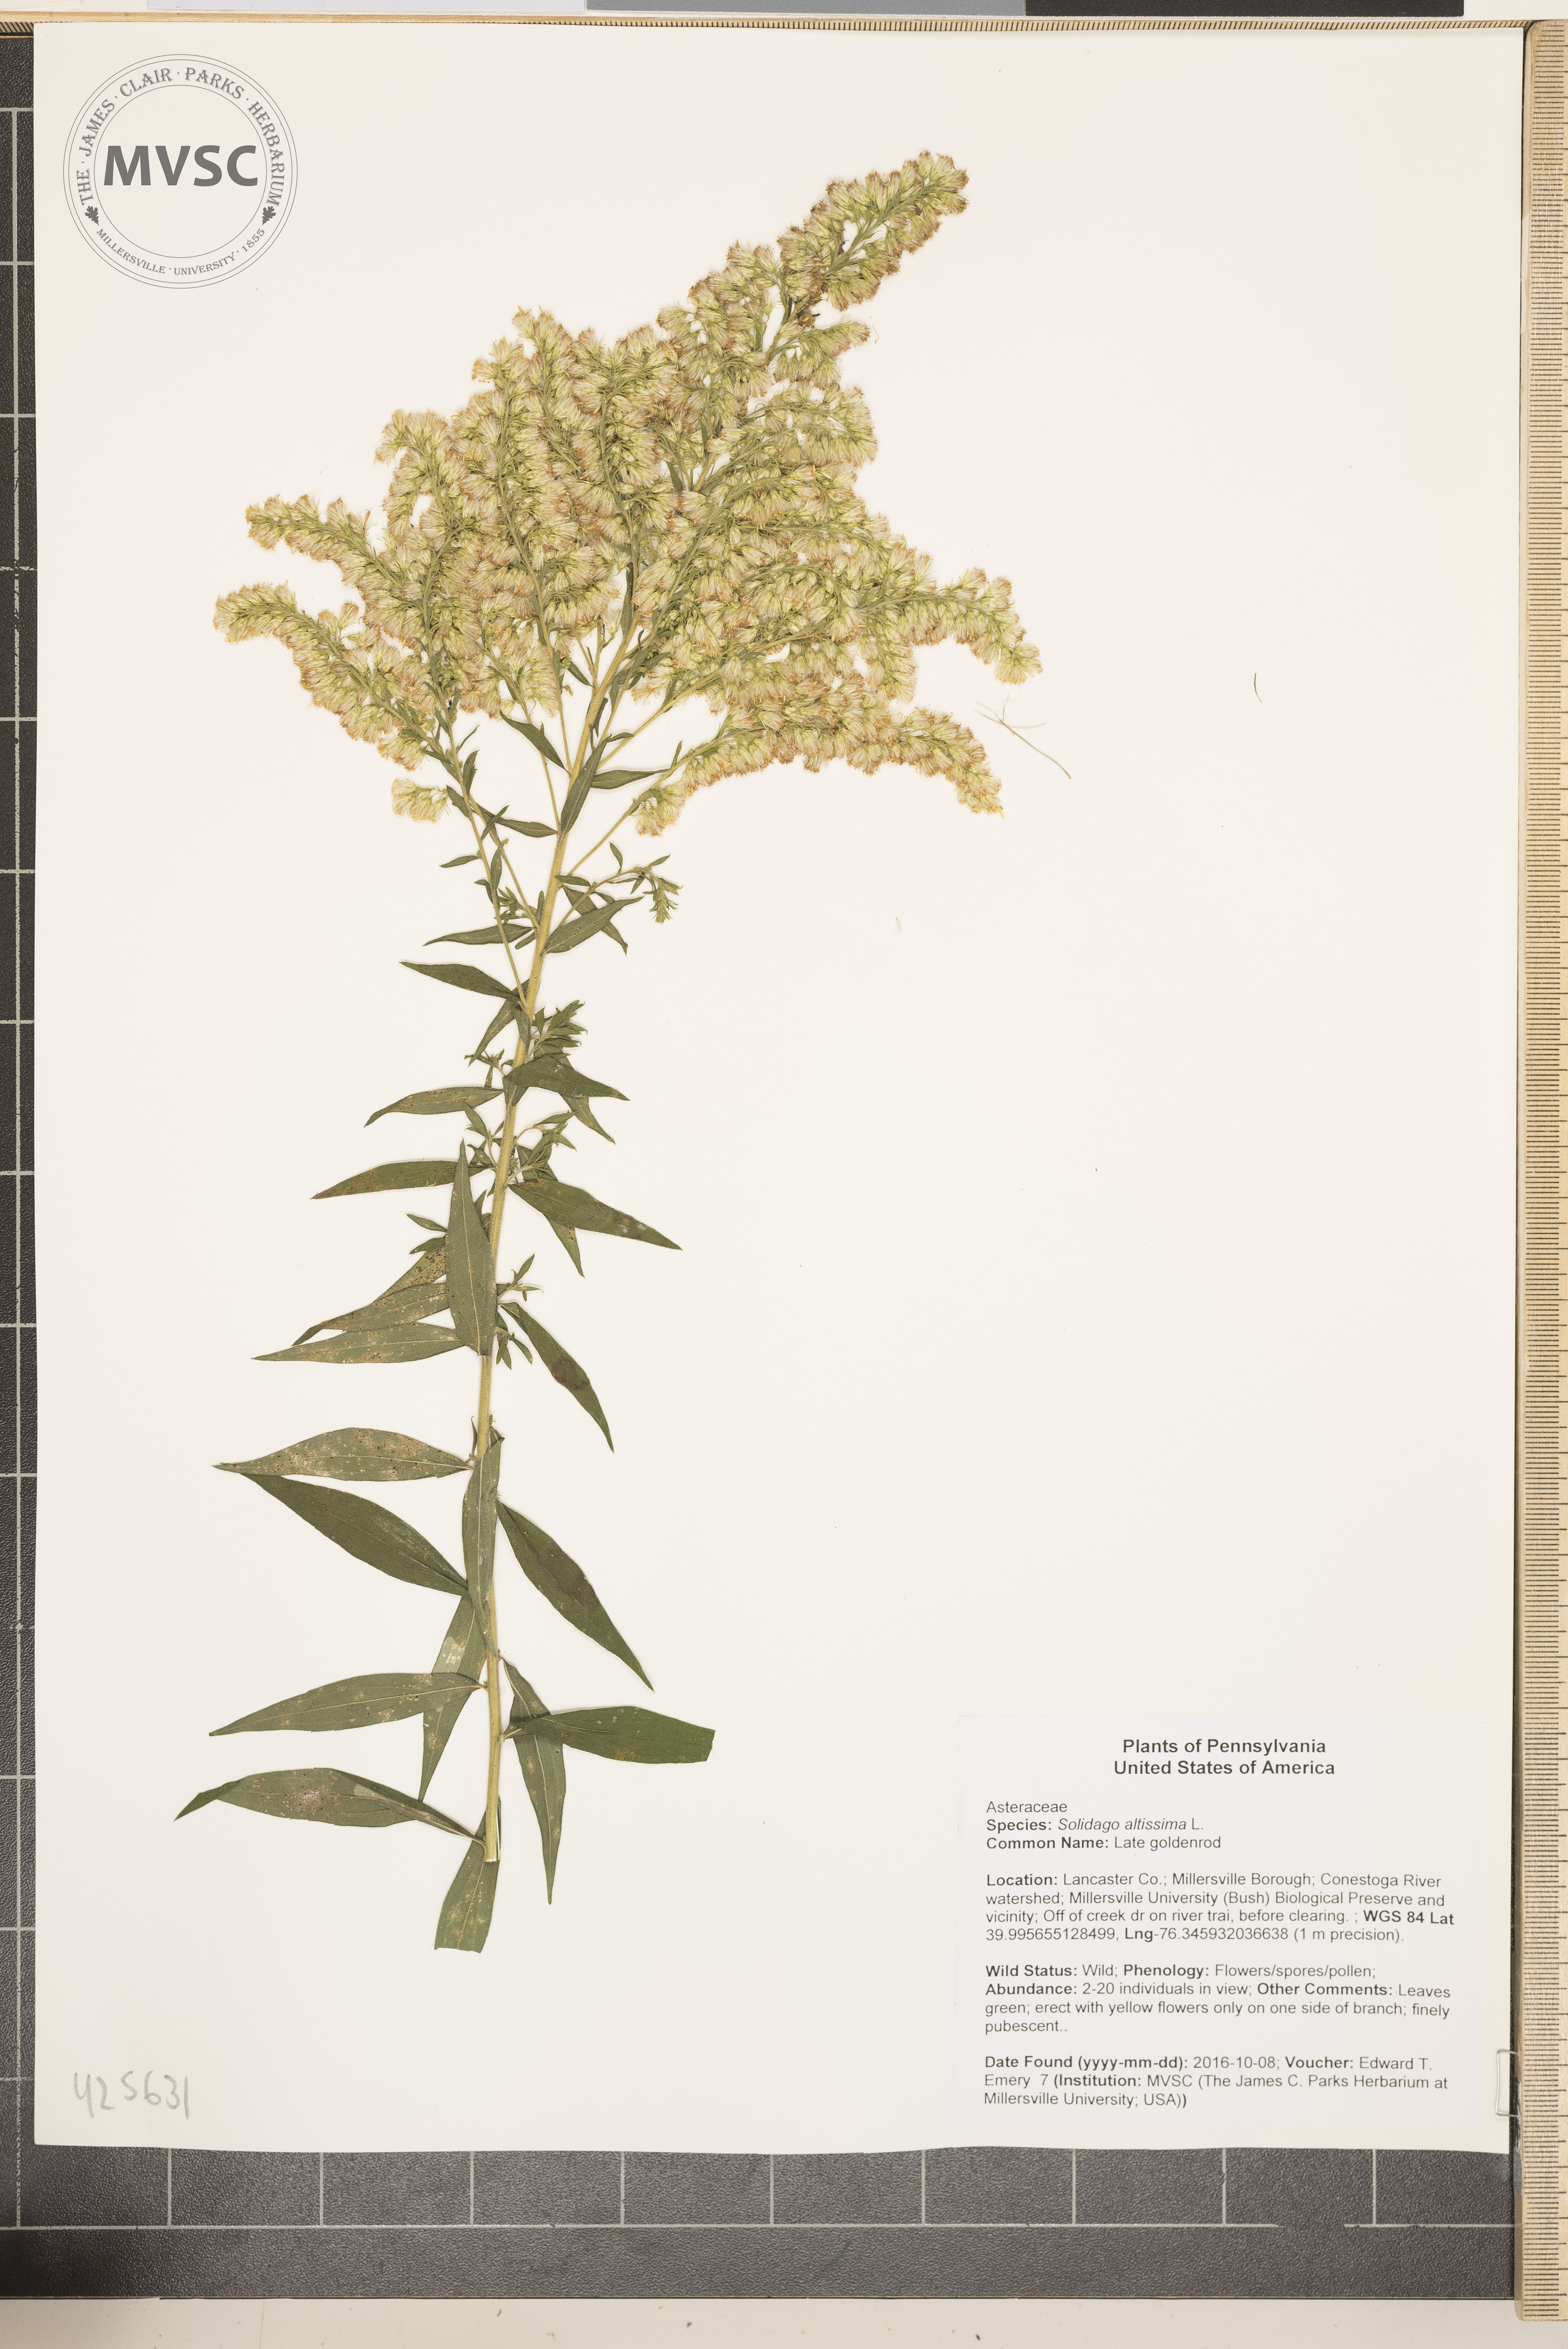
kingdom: Plantae
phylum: Tracheophyta
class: Magnoliopsida
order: Asterales
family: Asteraceae
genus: Solidago
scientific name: Solidago altissima
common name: Late goldenrod
